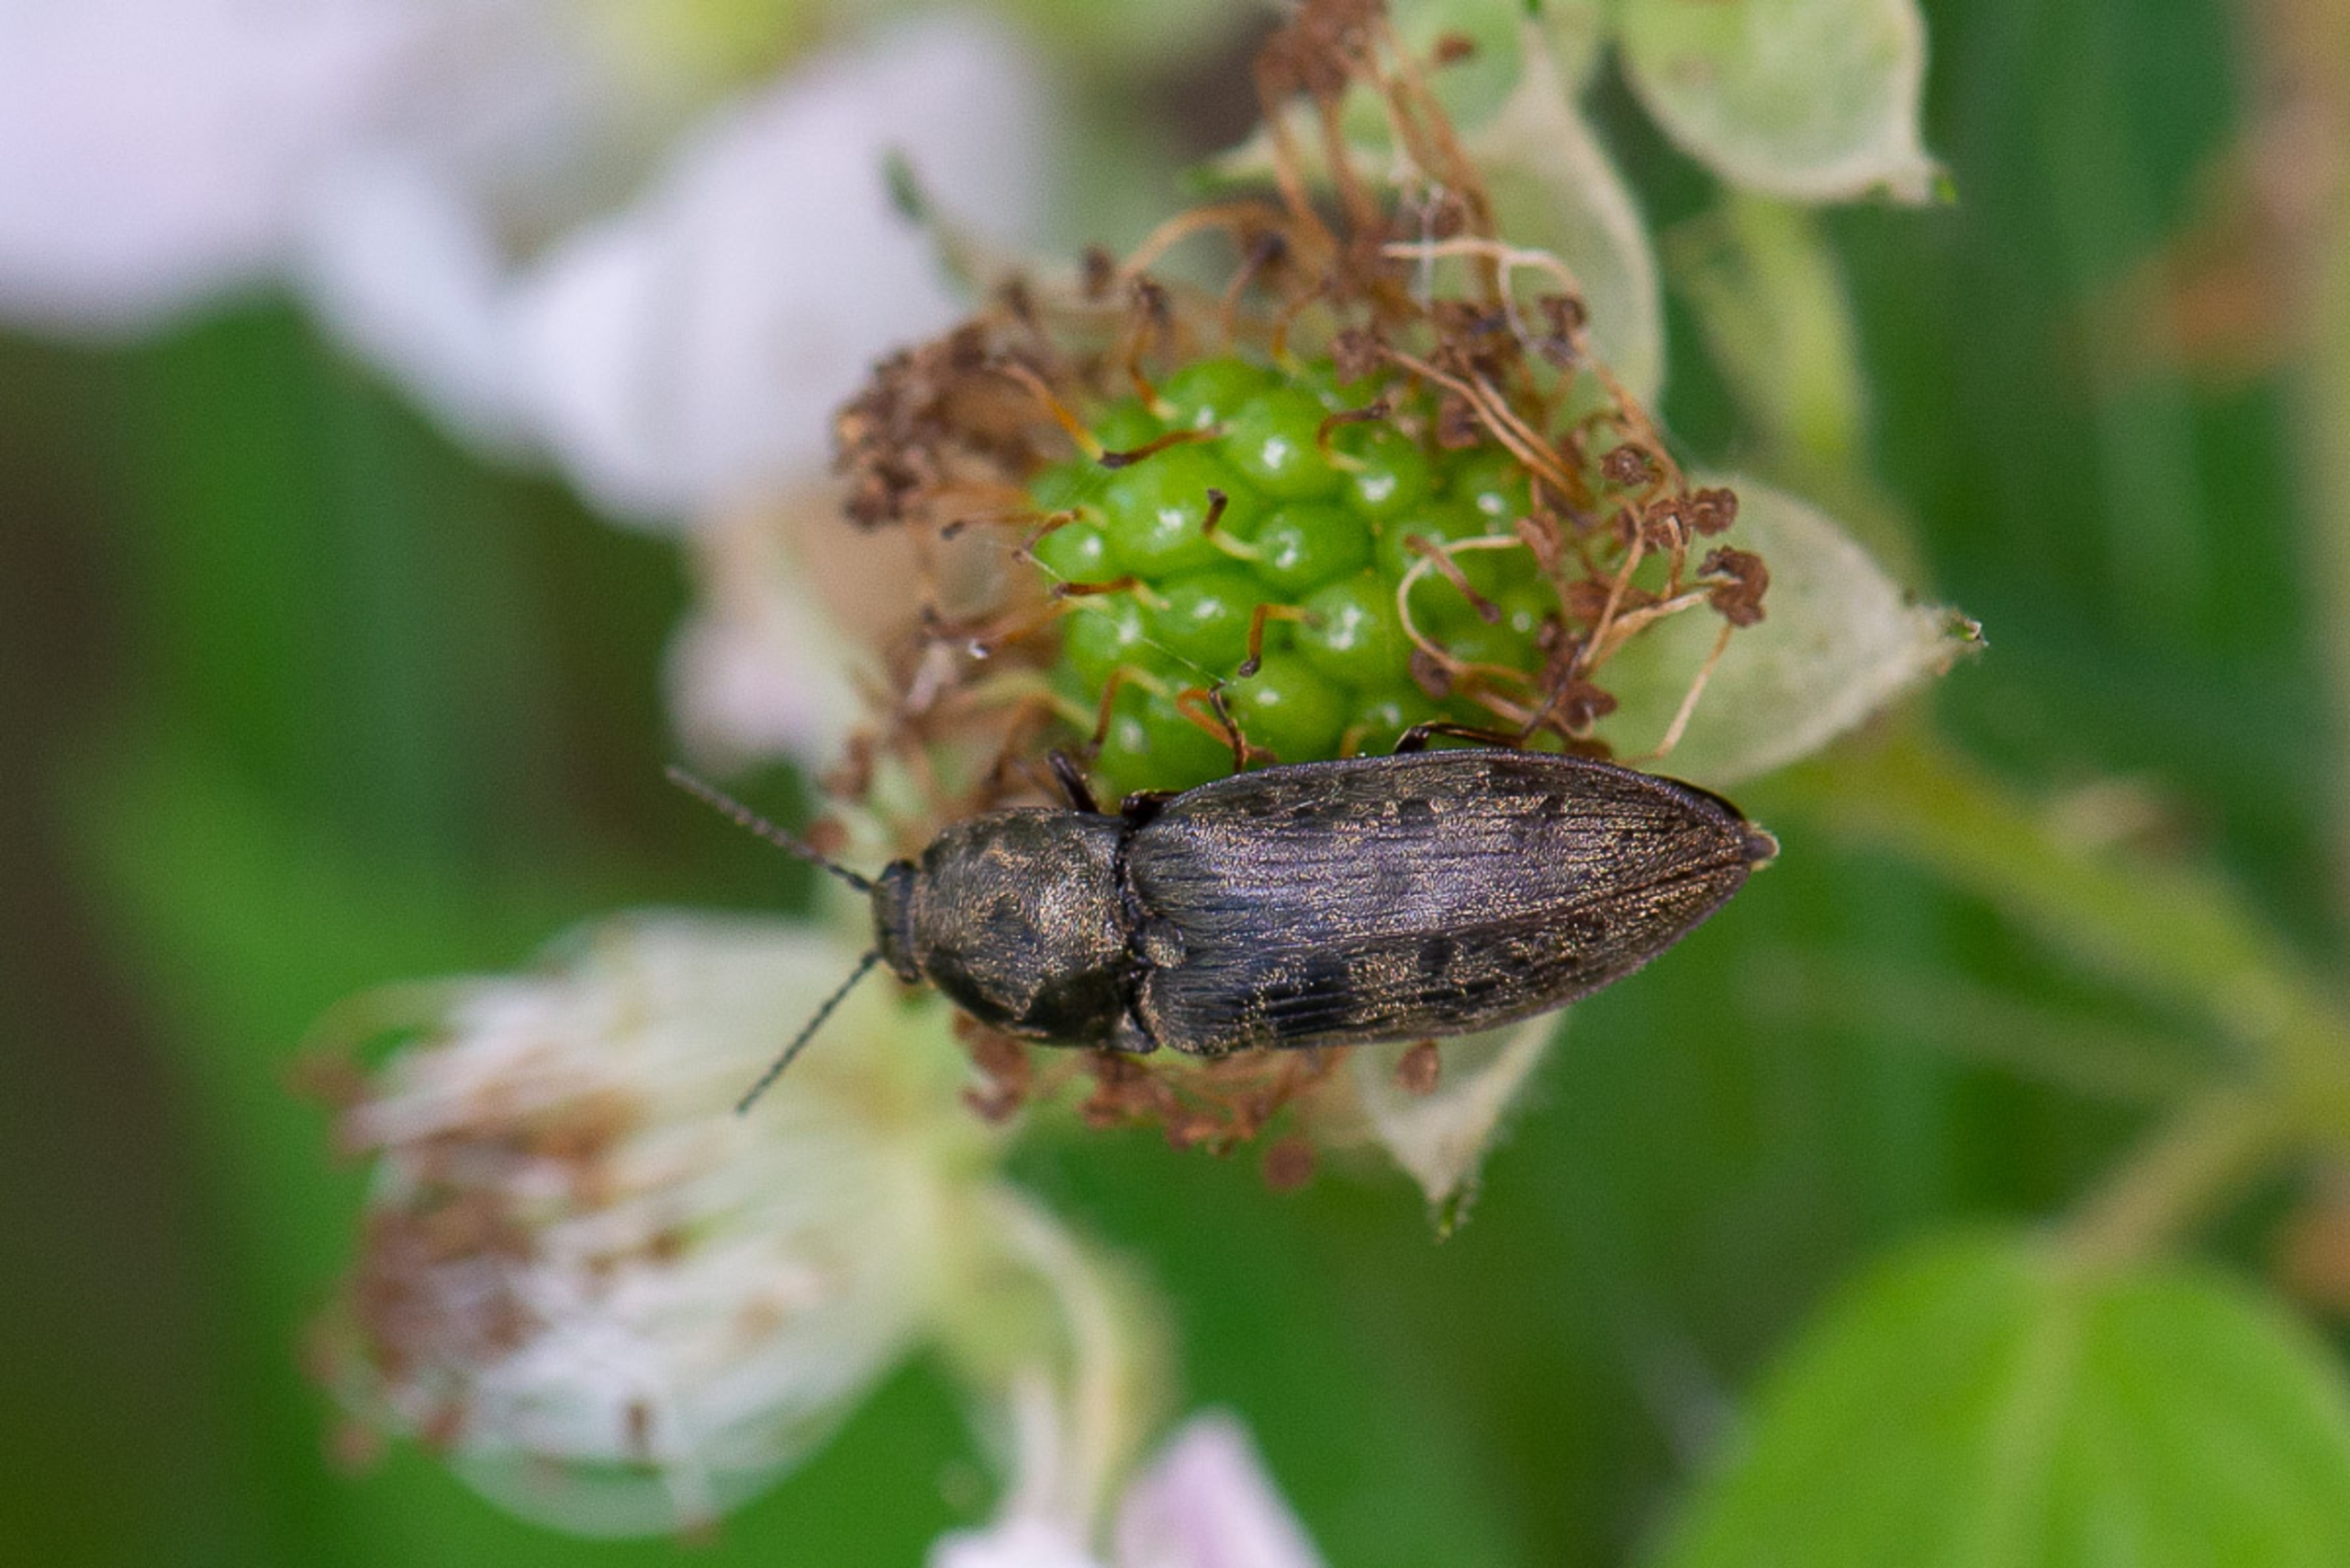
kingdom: Animalia
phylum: Arthropoda
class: Insecta
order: Coleoptera
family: Elateridae
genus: Prosternon
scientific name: Prosternon tessellatum
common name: Silkeglinsende jordsmælder
